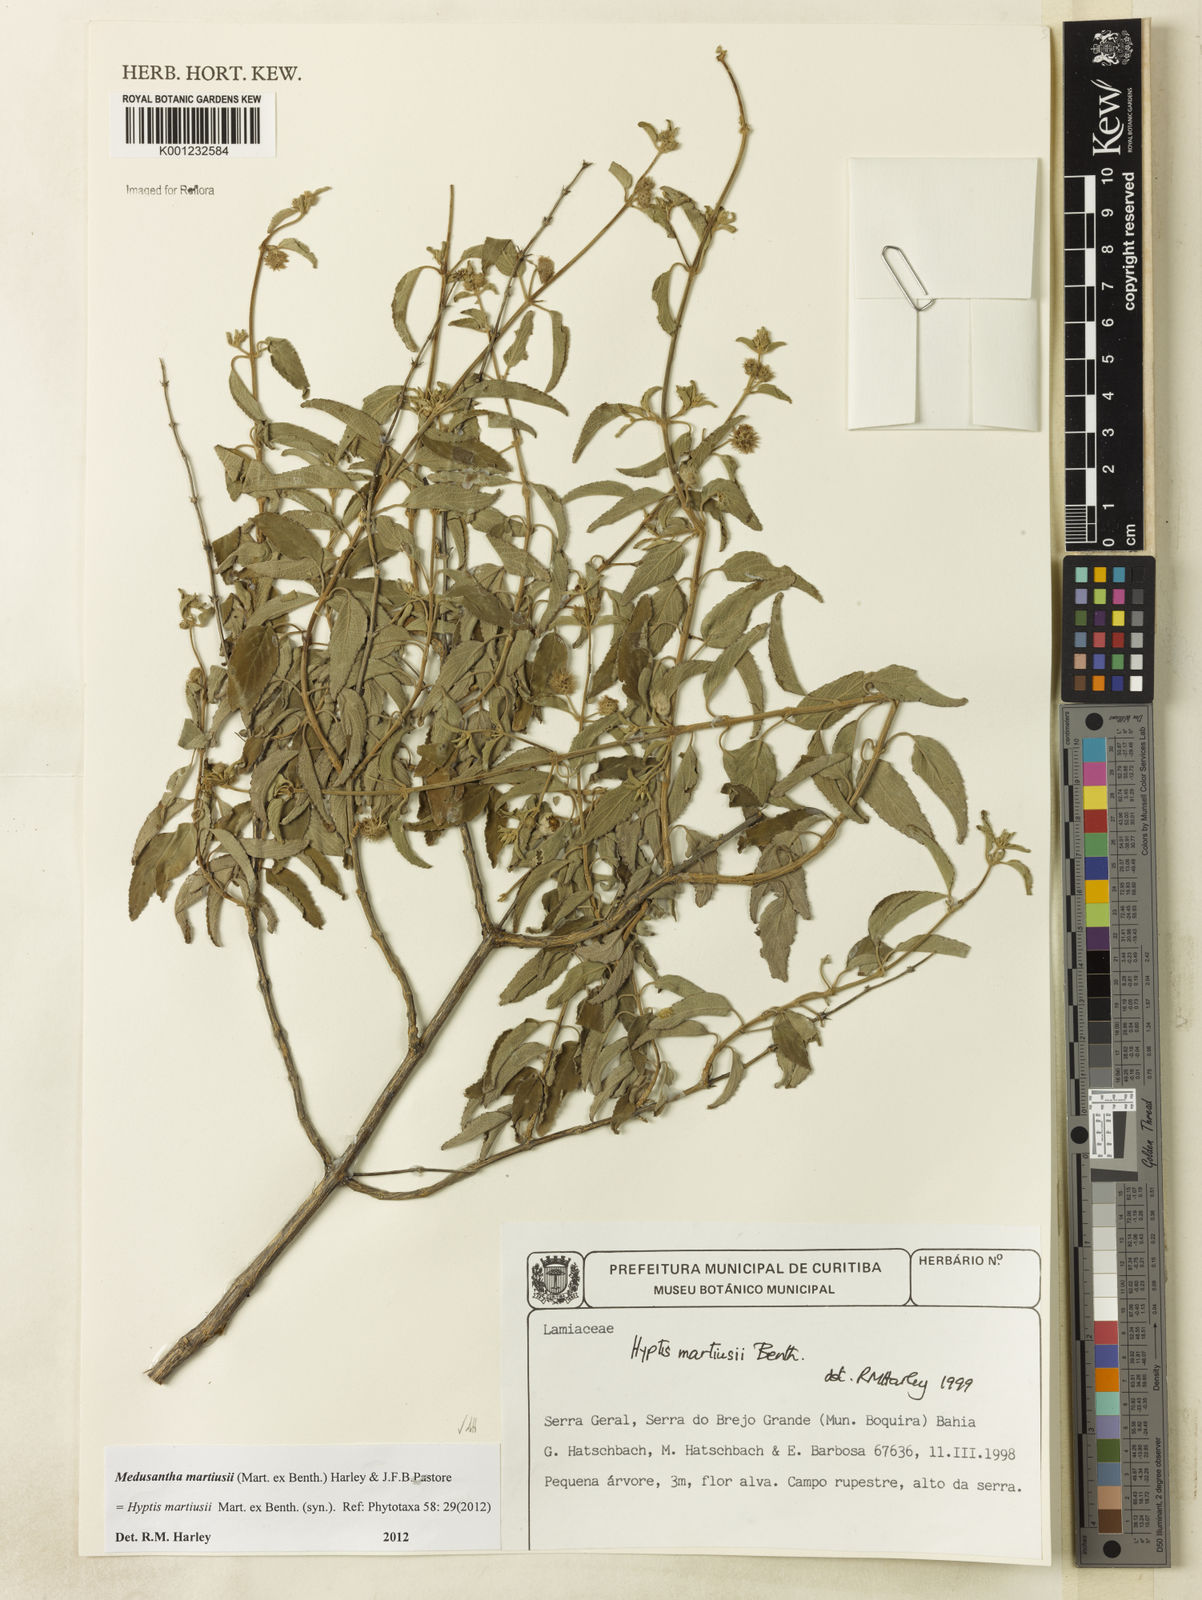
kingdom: Plantae
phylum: Tracheophyta
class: Magnoliopsida
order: Lamiales
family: Lamiaceae
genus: Medusantha
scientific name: Medusantha martiusii
